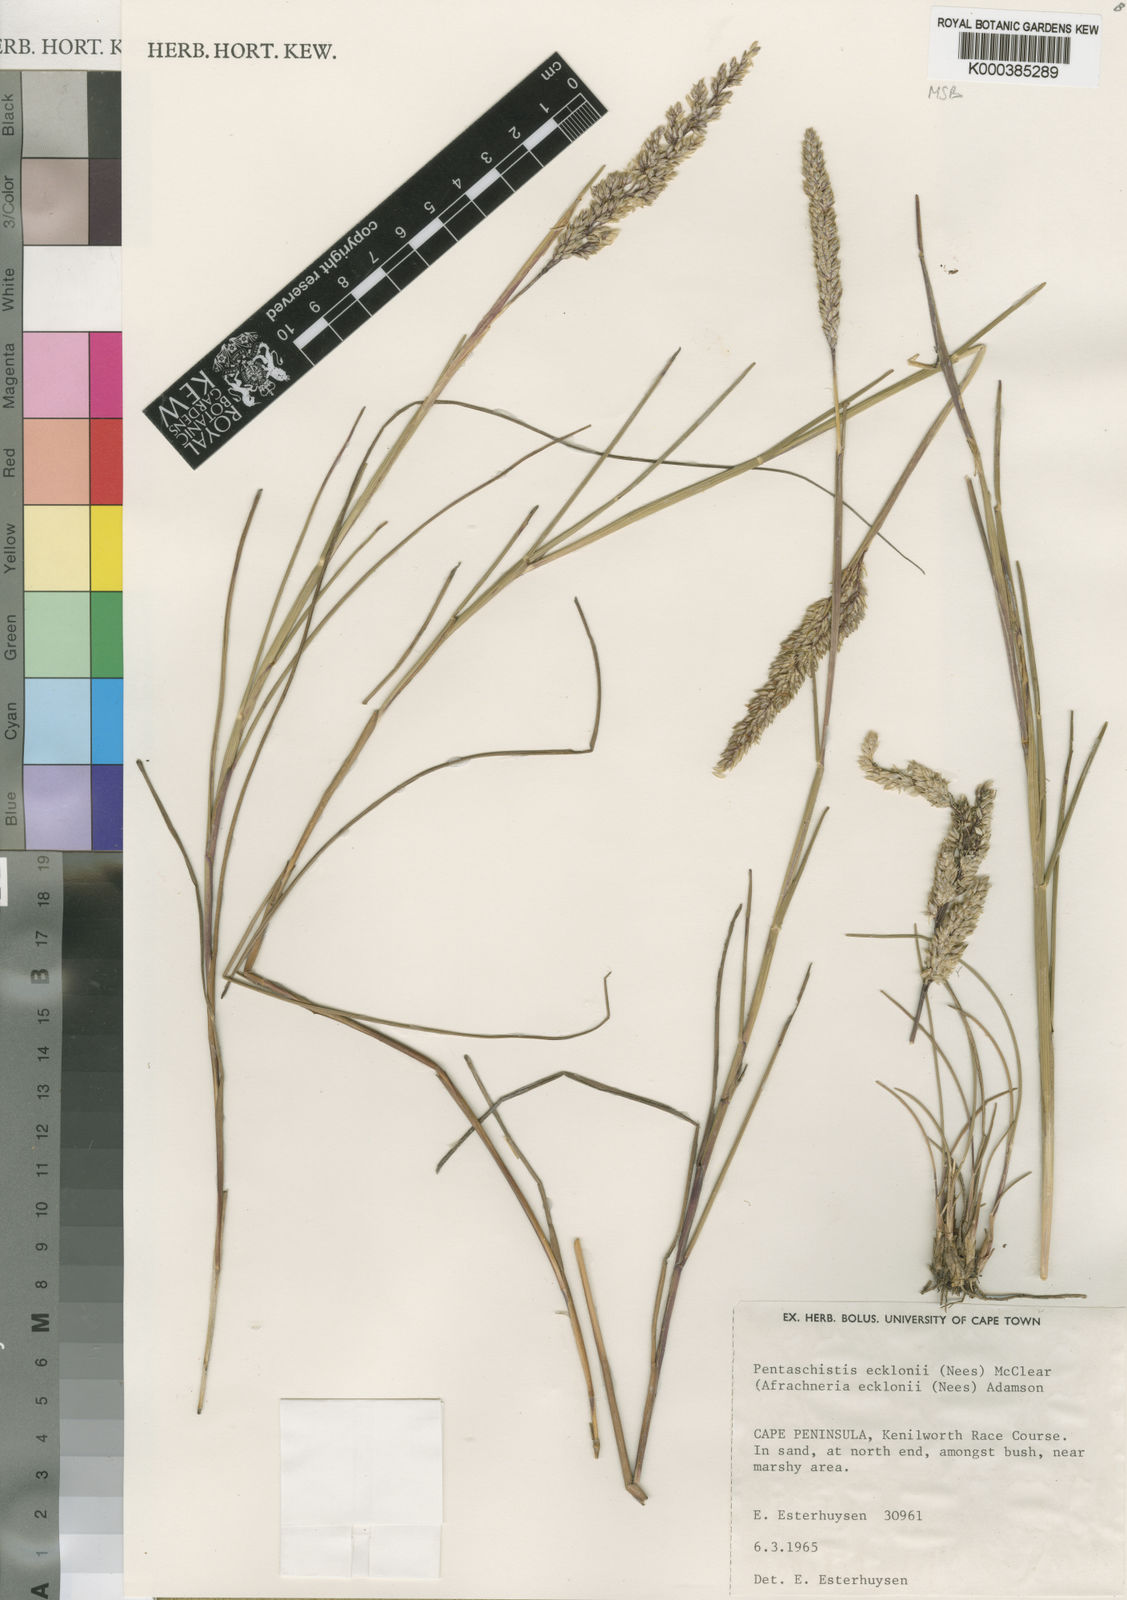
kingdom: Plantae
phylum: Tracheophyta
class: Liliopsida
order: Poales
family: Poaceae
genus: Pentameris
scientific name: Pentameris ecklonii
